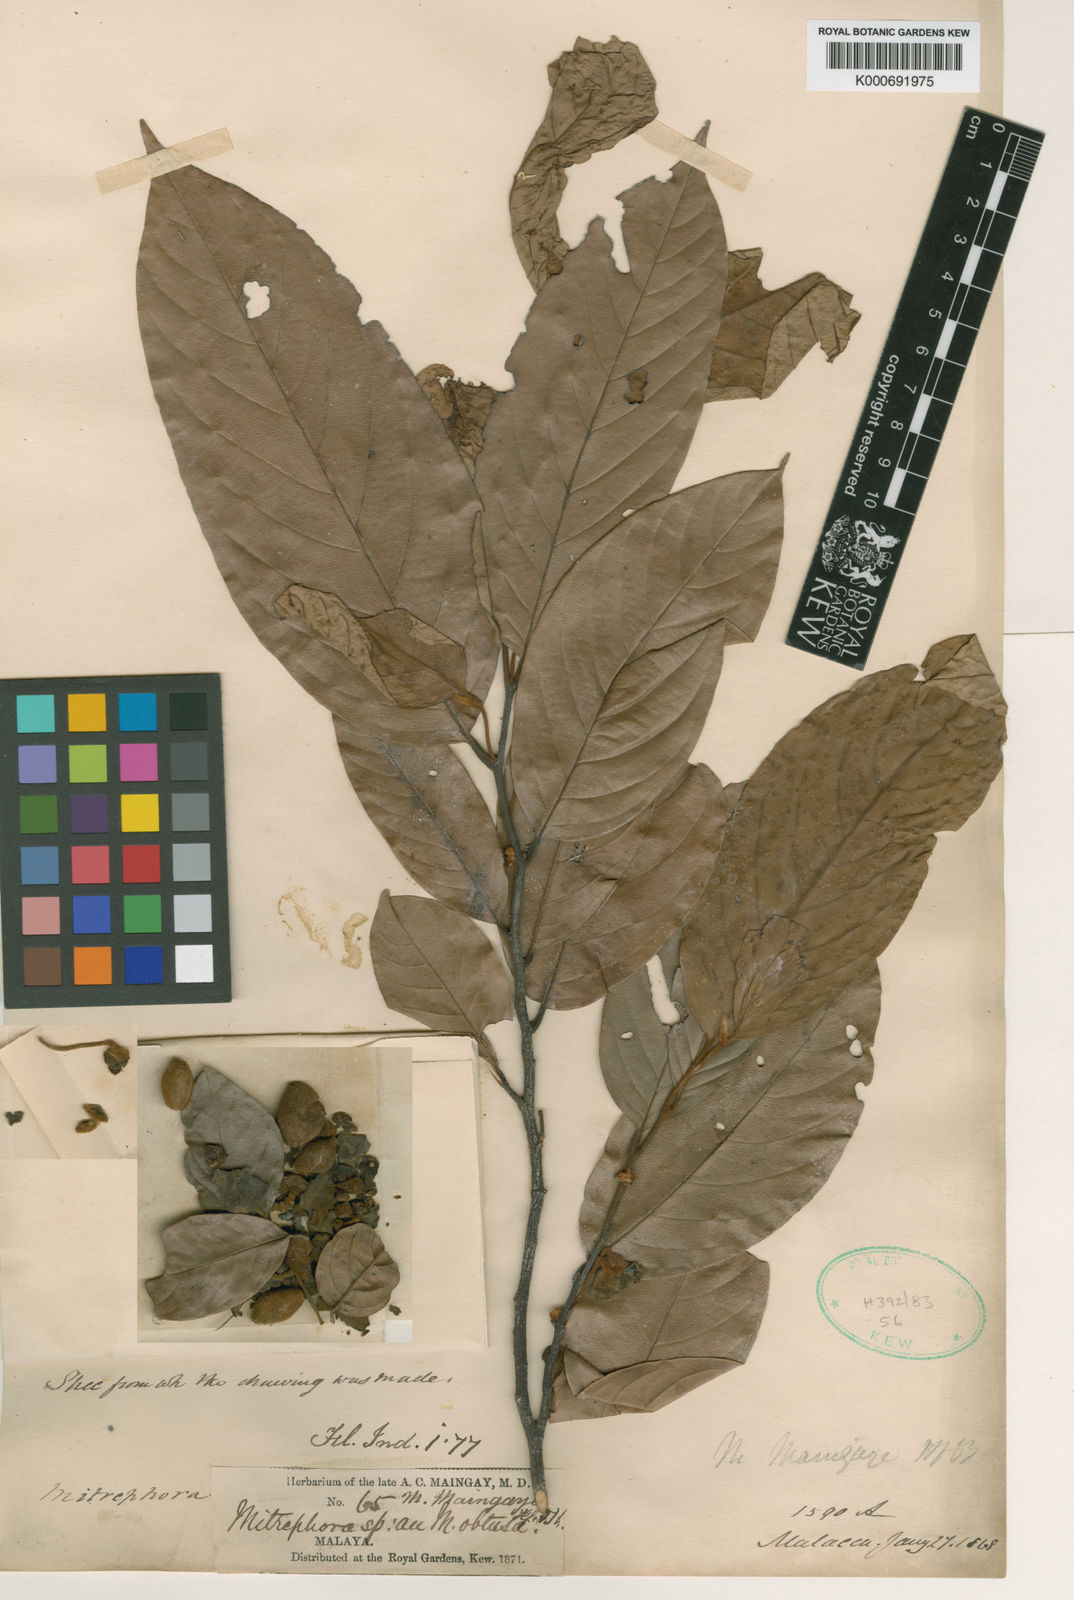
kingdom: Plantae
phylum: Tracheophyta
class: Magnoliopsida
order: Magnoliales
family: Annonaceae
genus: Mitrephora
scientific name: Mitrephora teysmannii
